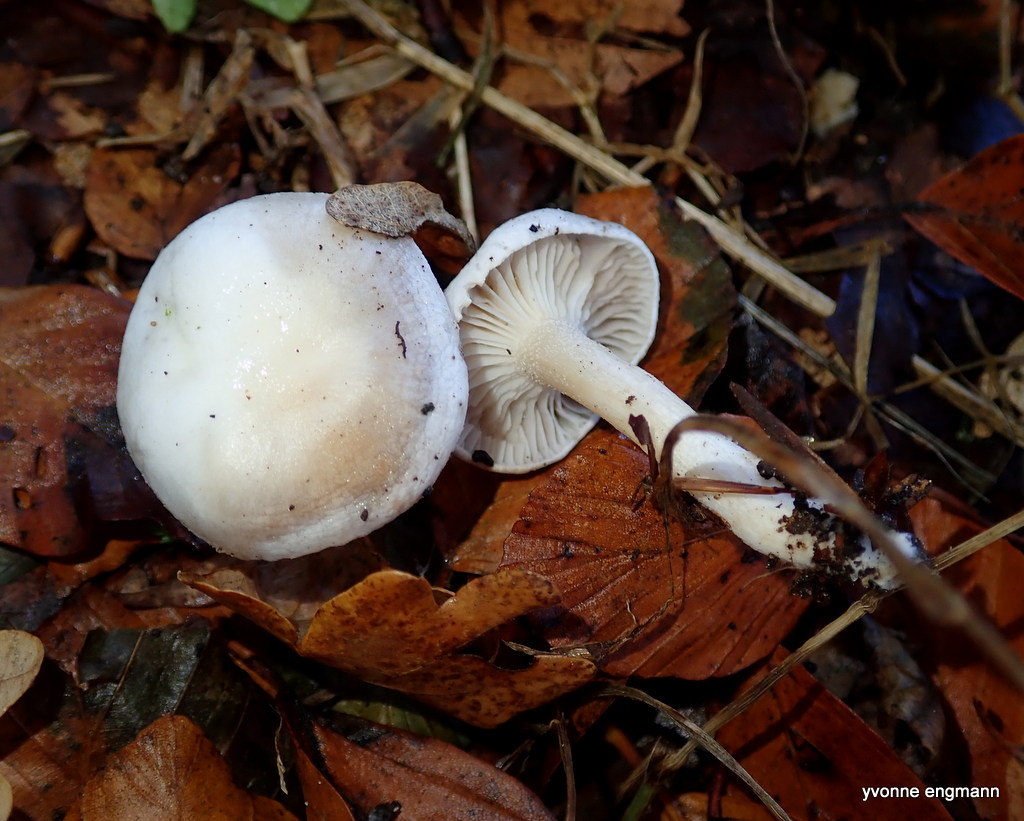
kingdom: Fungi
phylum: Basidiomycota
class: Agaricomycetes
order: Agaricales
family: Hygrophoraceae
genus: Hygrophorus
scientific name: Hygrophorus eburneus
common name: elfenbens-sneglehat
